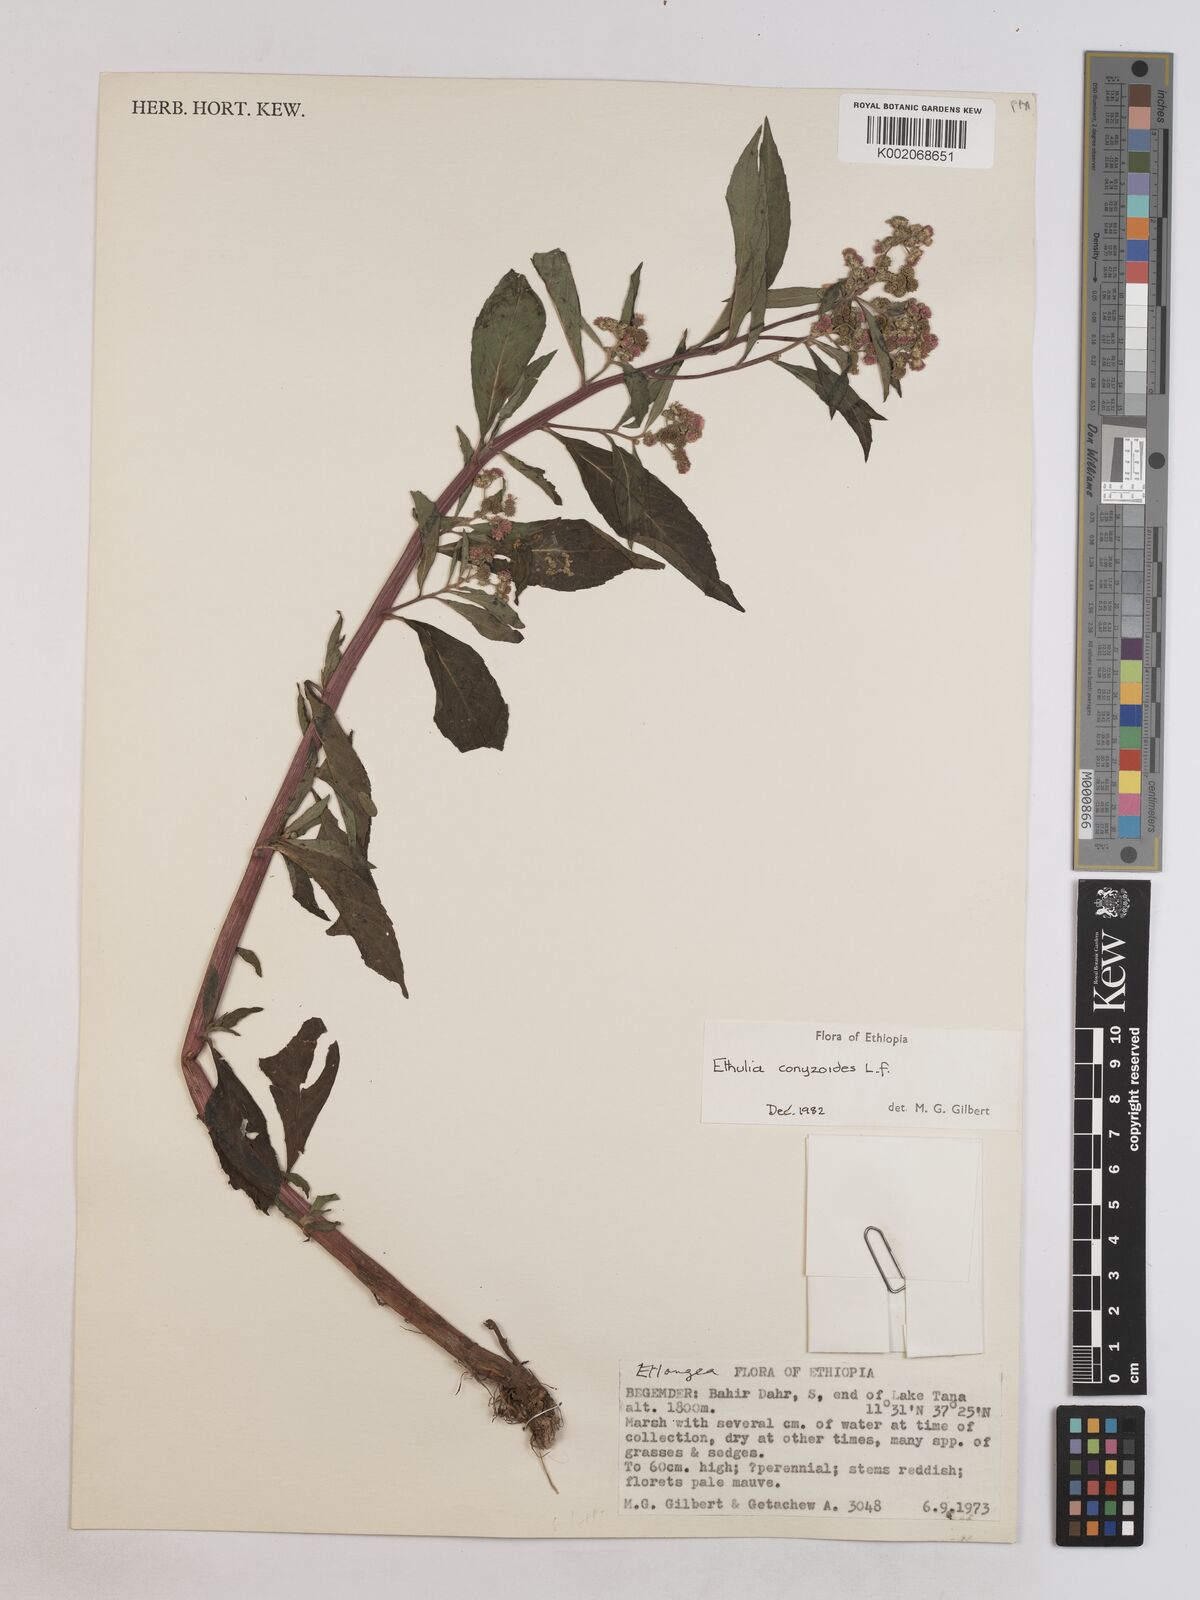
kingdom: Plantae
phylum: Tracheophyta
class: Magnoliopsida
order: Asterales
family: Asteraceae
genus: Ethulia
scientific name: Ethulia conyzoides
